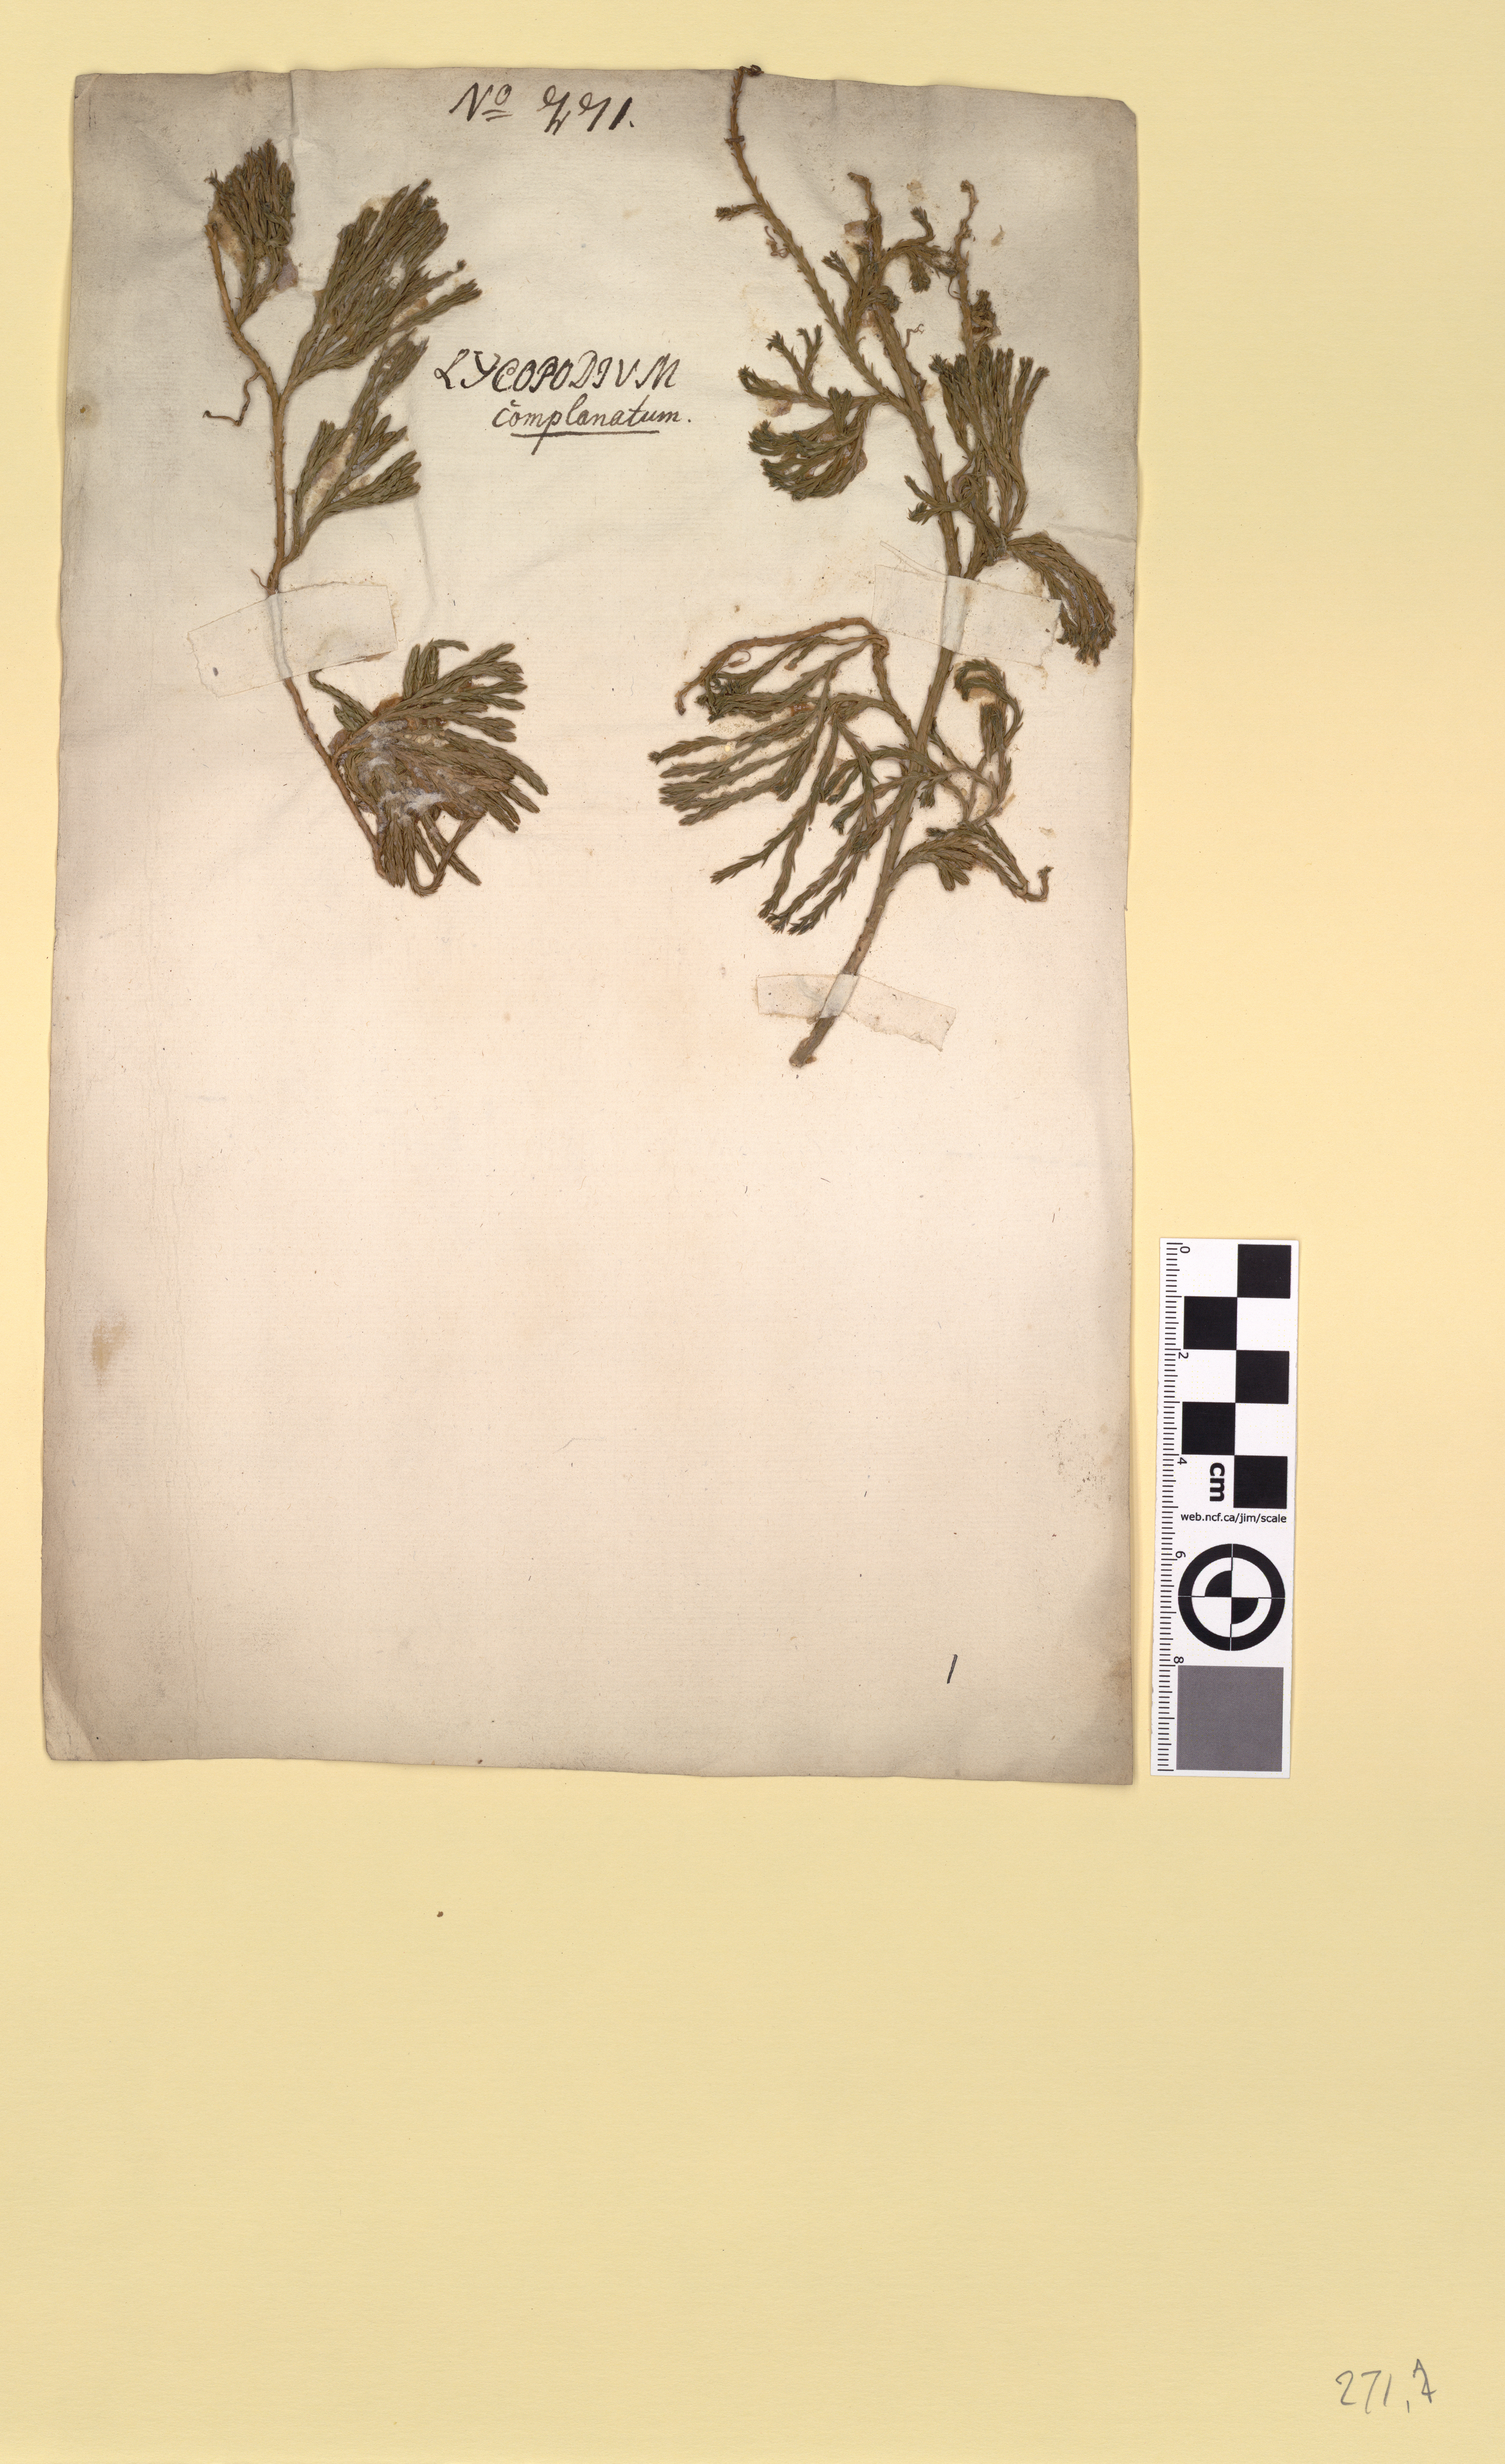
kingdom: Plantae
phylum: Tracheophyta
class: Lycopodiopsida
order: Lycopodiales
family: Lycopodiaceae
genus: Diphasiastrum
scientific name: Diphasiastrum alpinum
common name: Alpine clubmoss
